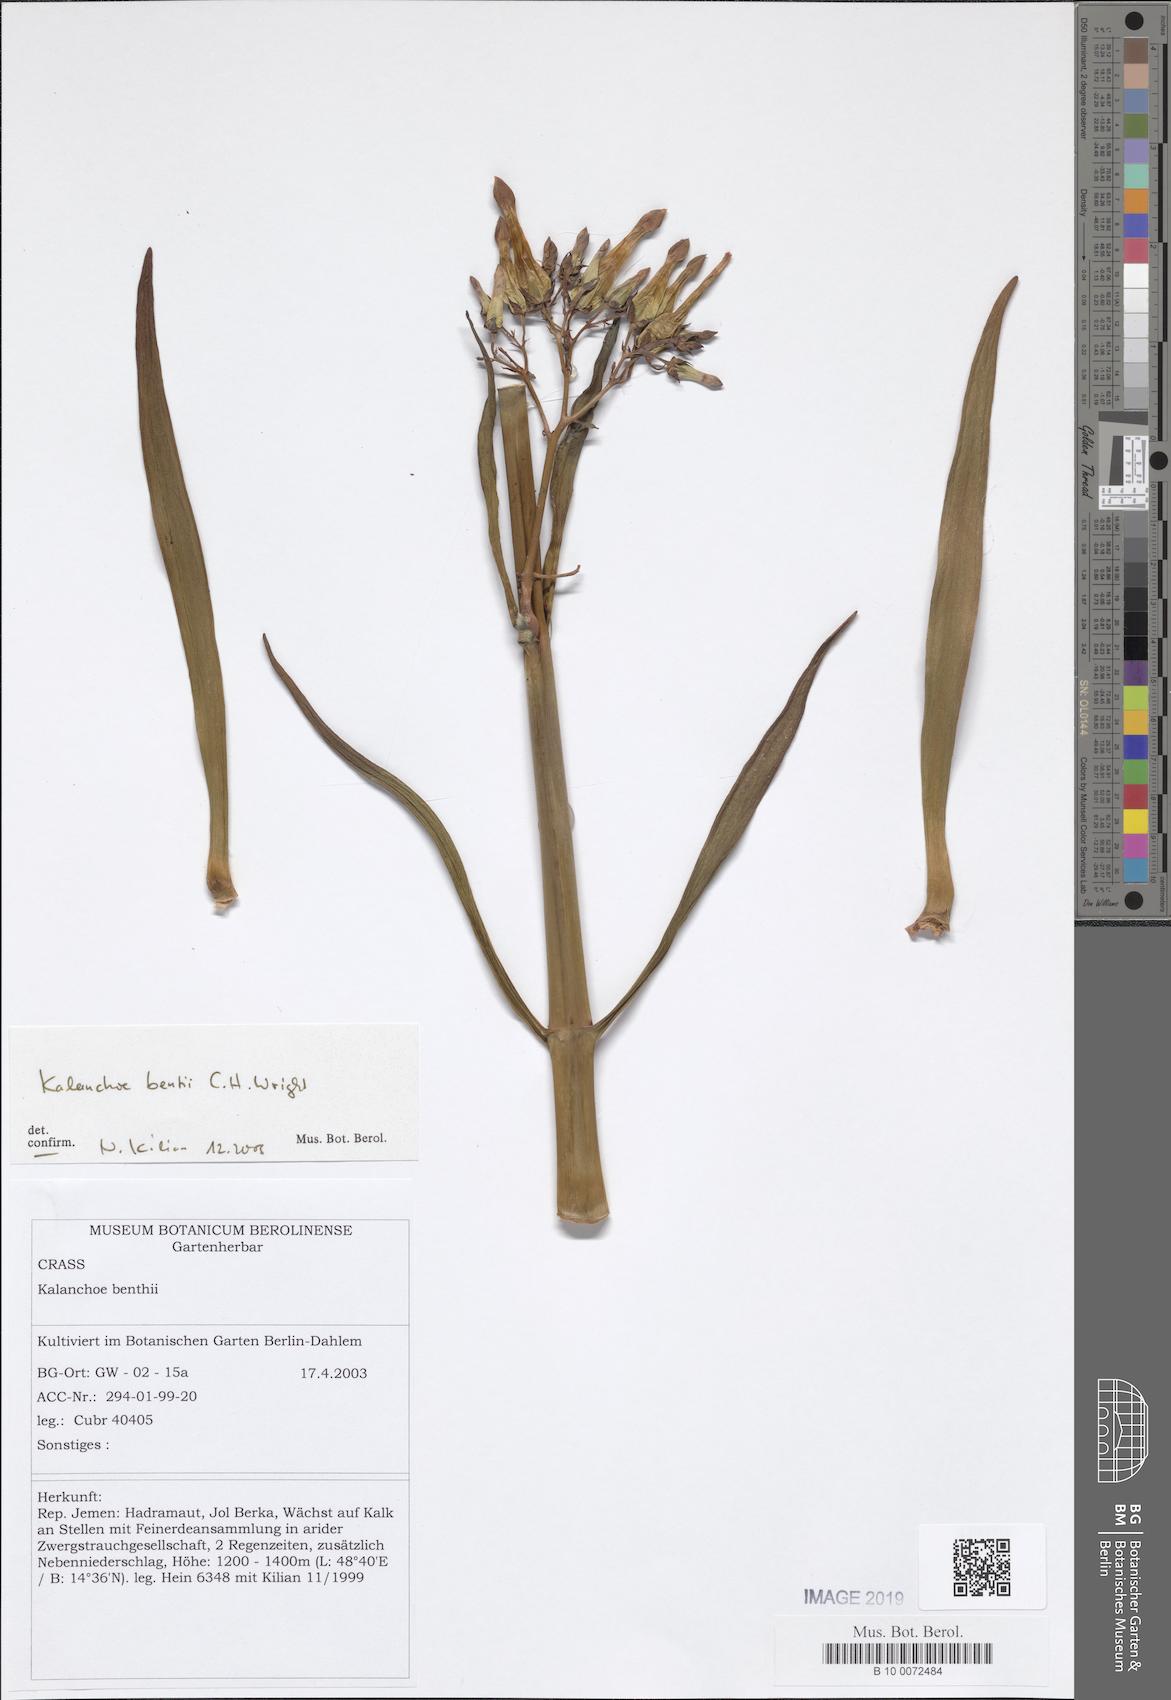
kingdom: Plantae
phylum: Tracheophyta
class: Magnoliopsida
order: Saxifragales
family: Crassulaceae
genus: Kalanchoe
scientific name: Kalanchoe bentii
